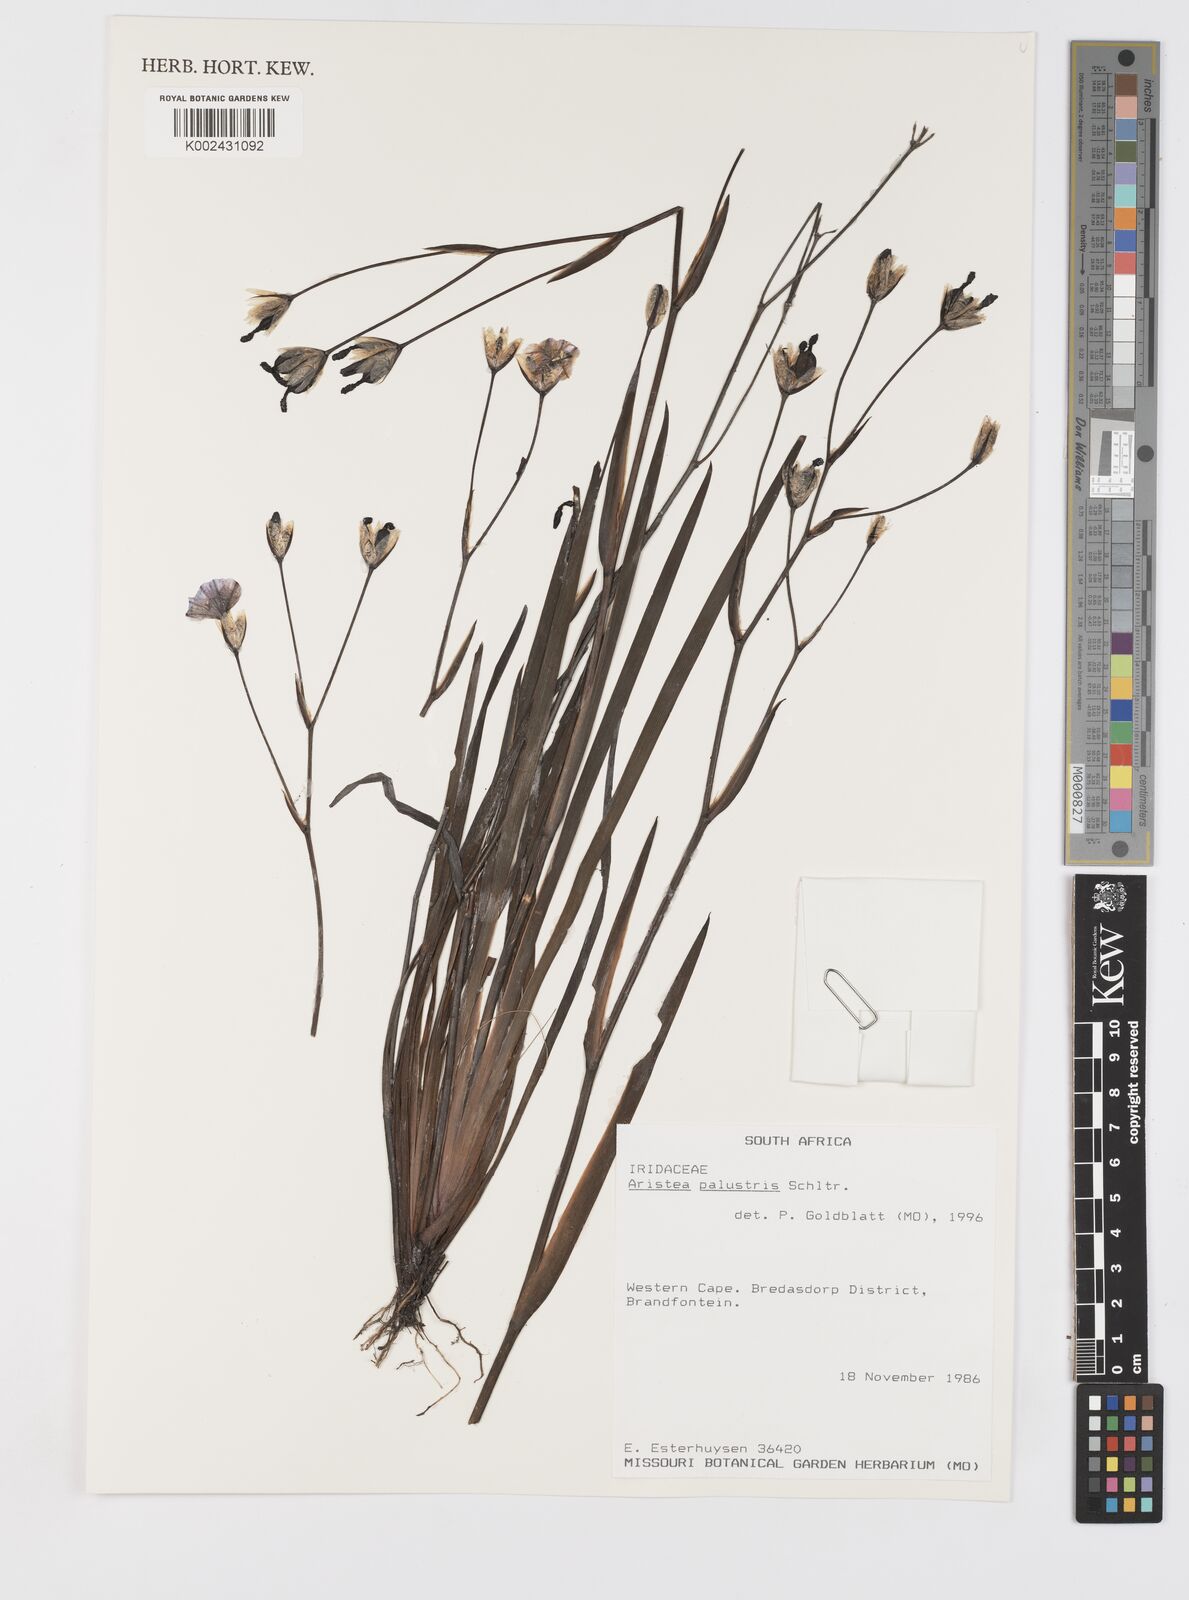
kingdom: Plantae
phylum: Tracheophyta
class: Liliopsida
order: Asparagales
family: Iridaceae
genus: Aristea
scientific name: Aristea palustris
